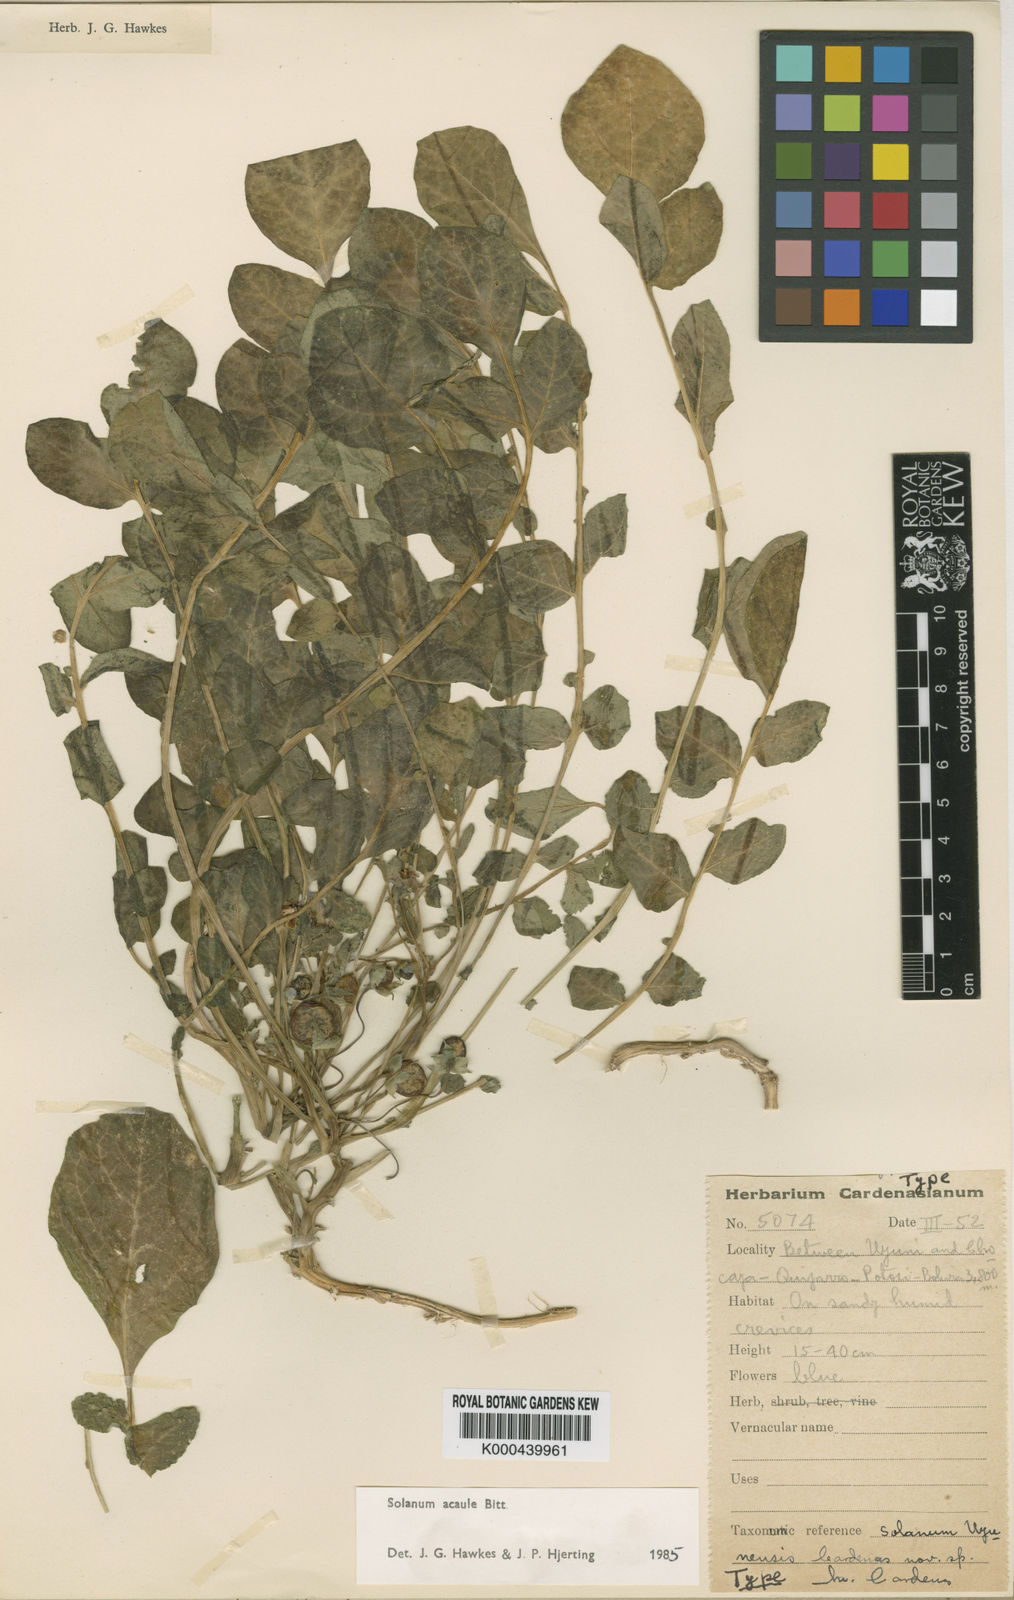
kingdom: Plantae
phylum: Tracheophyta
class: Magnoliopsida
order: Solanales
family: Solanaceae
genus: Solanum
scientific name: Solanum acaule
